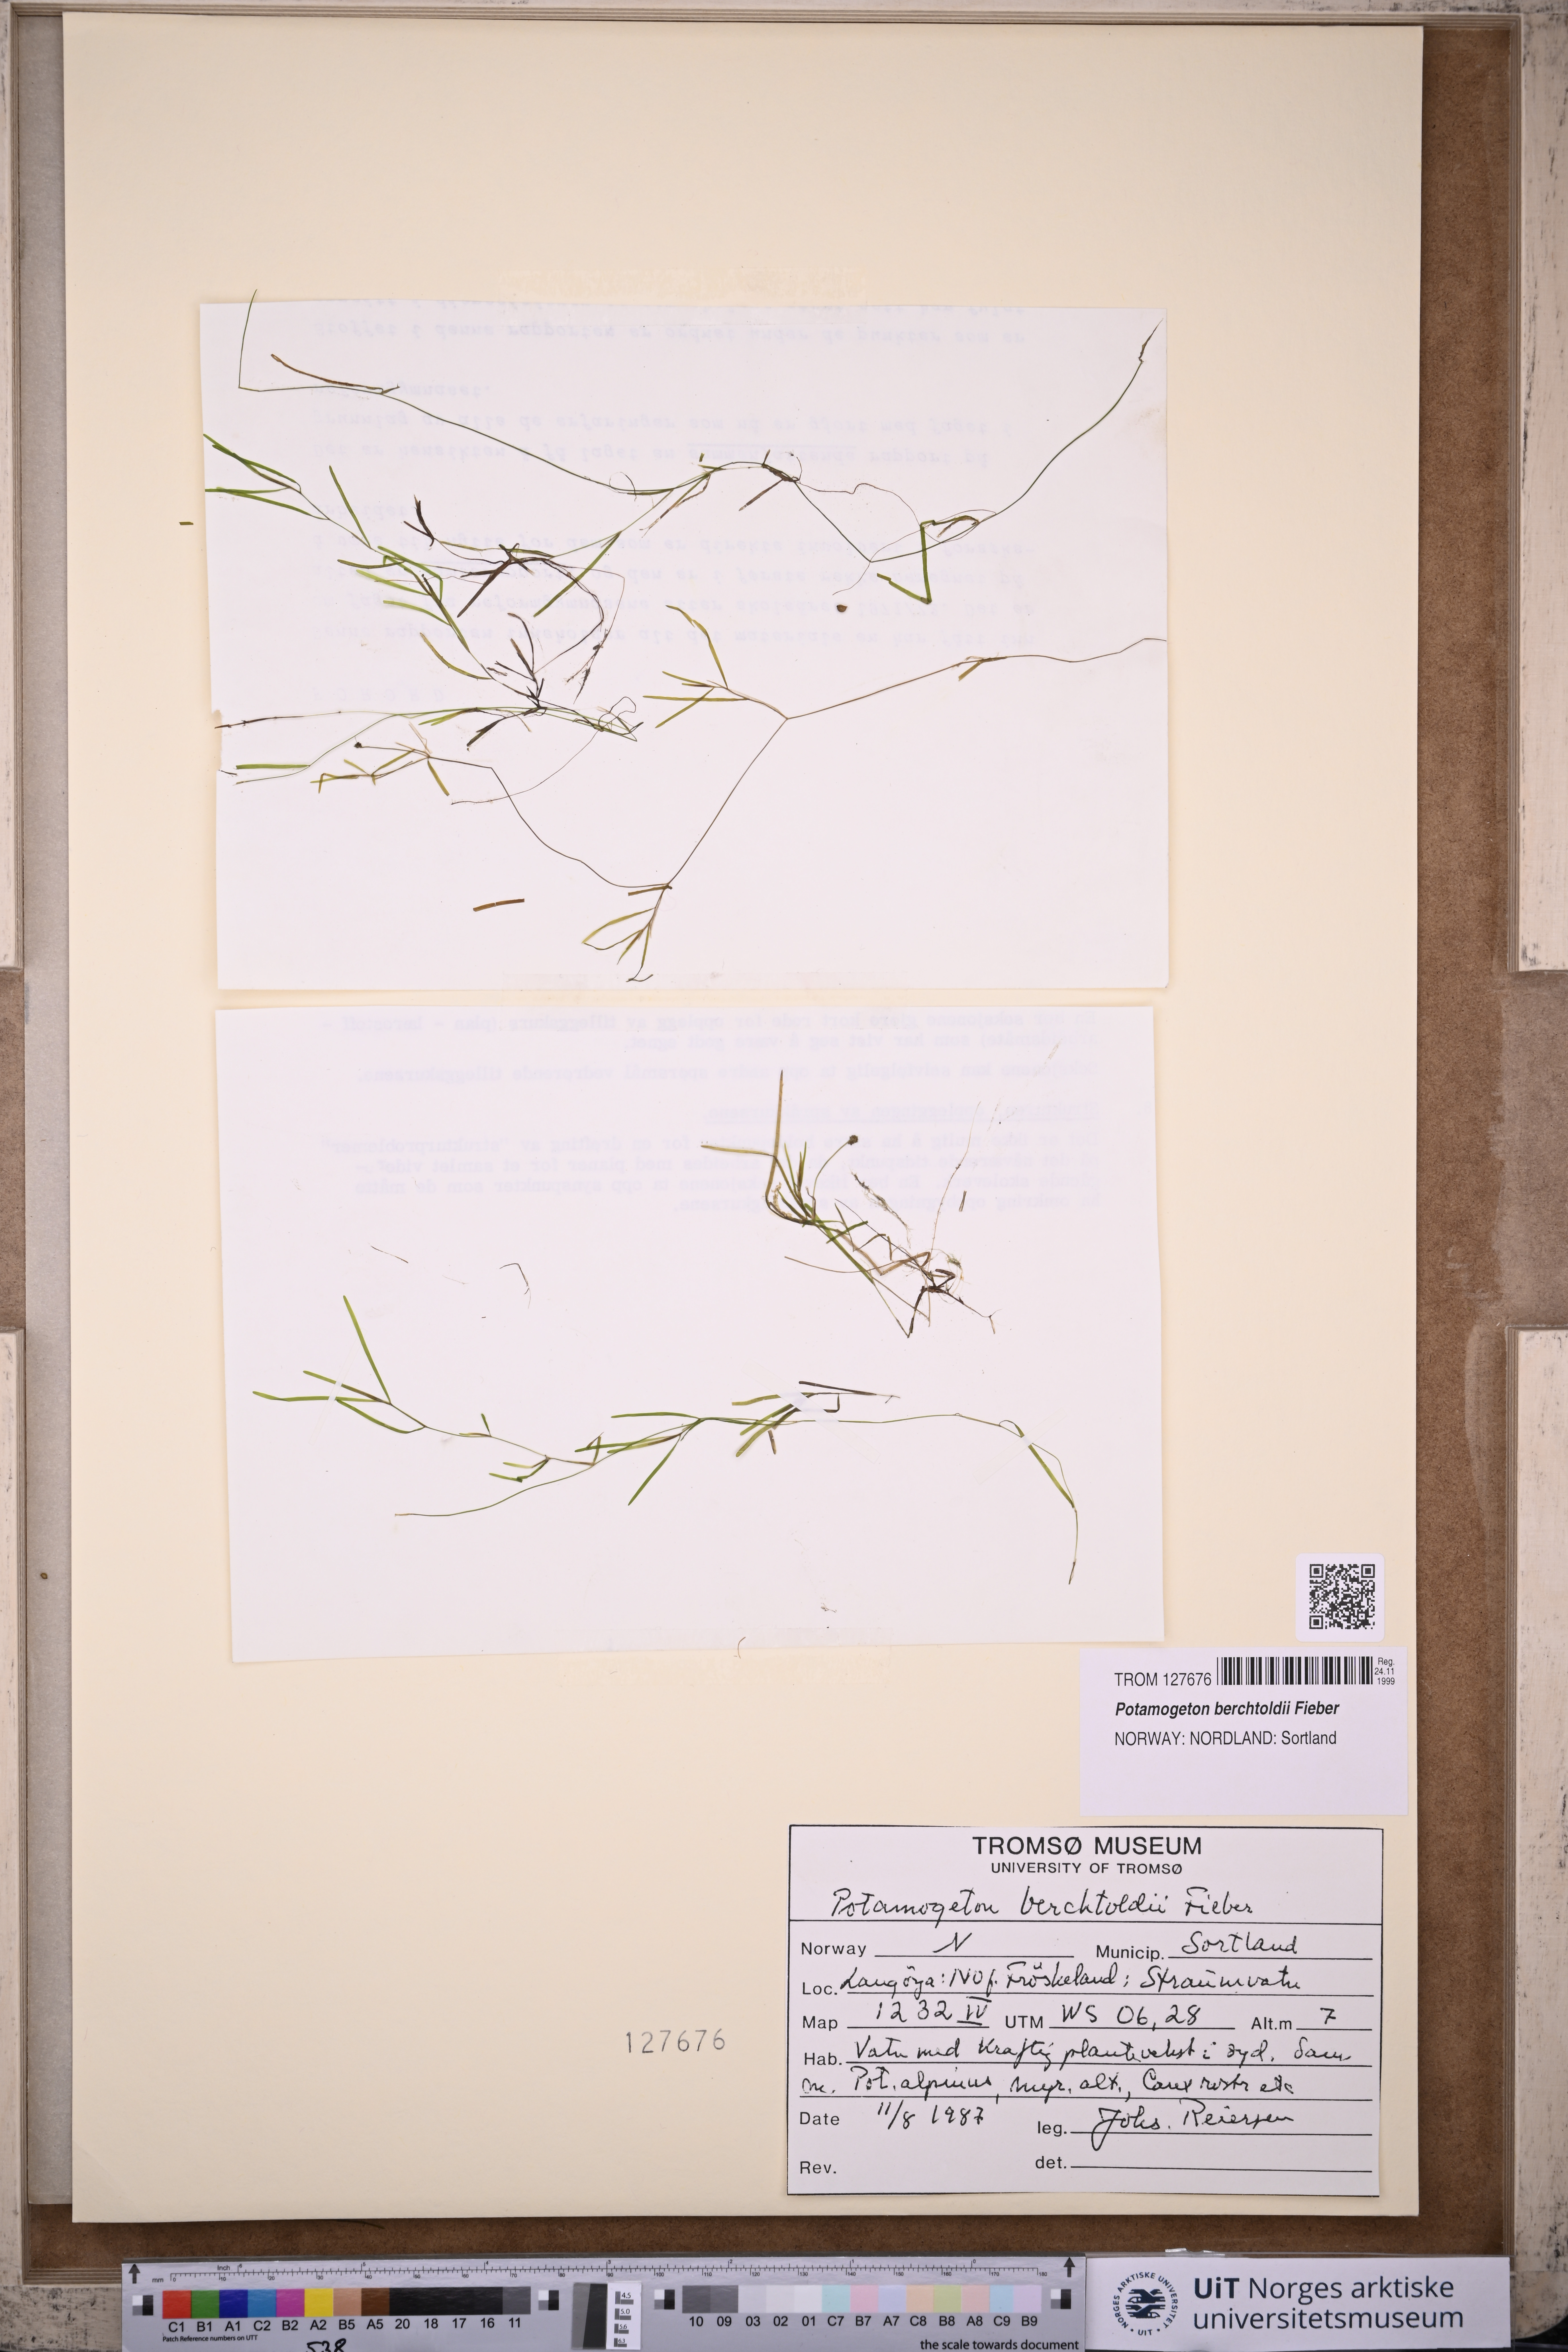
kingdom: Plantae
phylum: Tracheophyta
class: Liliopsida
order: Alismatales
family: Potamogetonaceae
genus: Potamogeton
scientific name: Potamogeton berchtoldii
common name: Small pondweed
